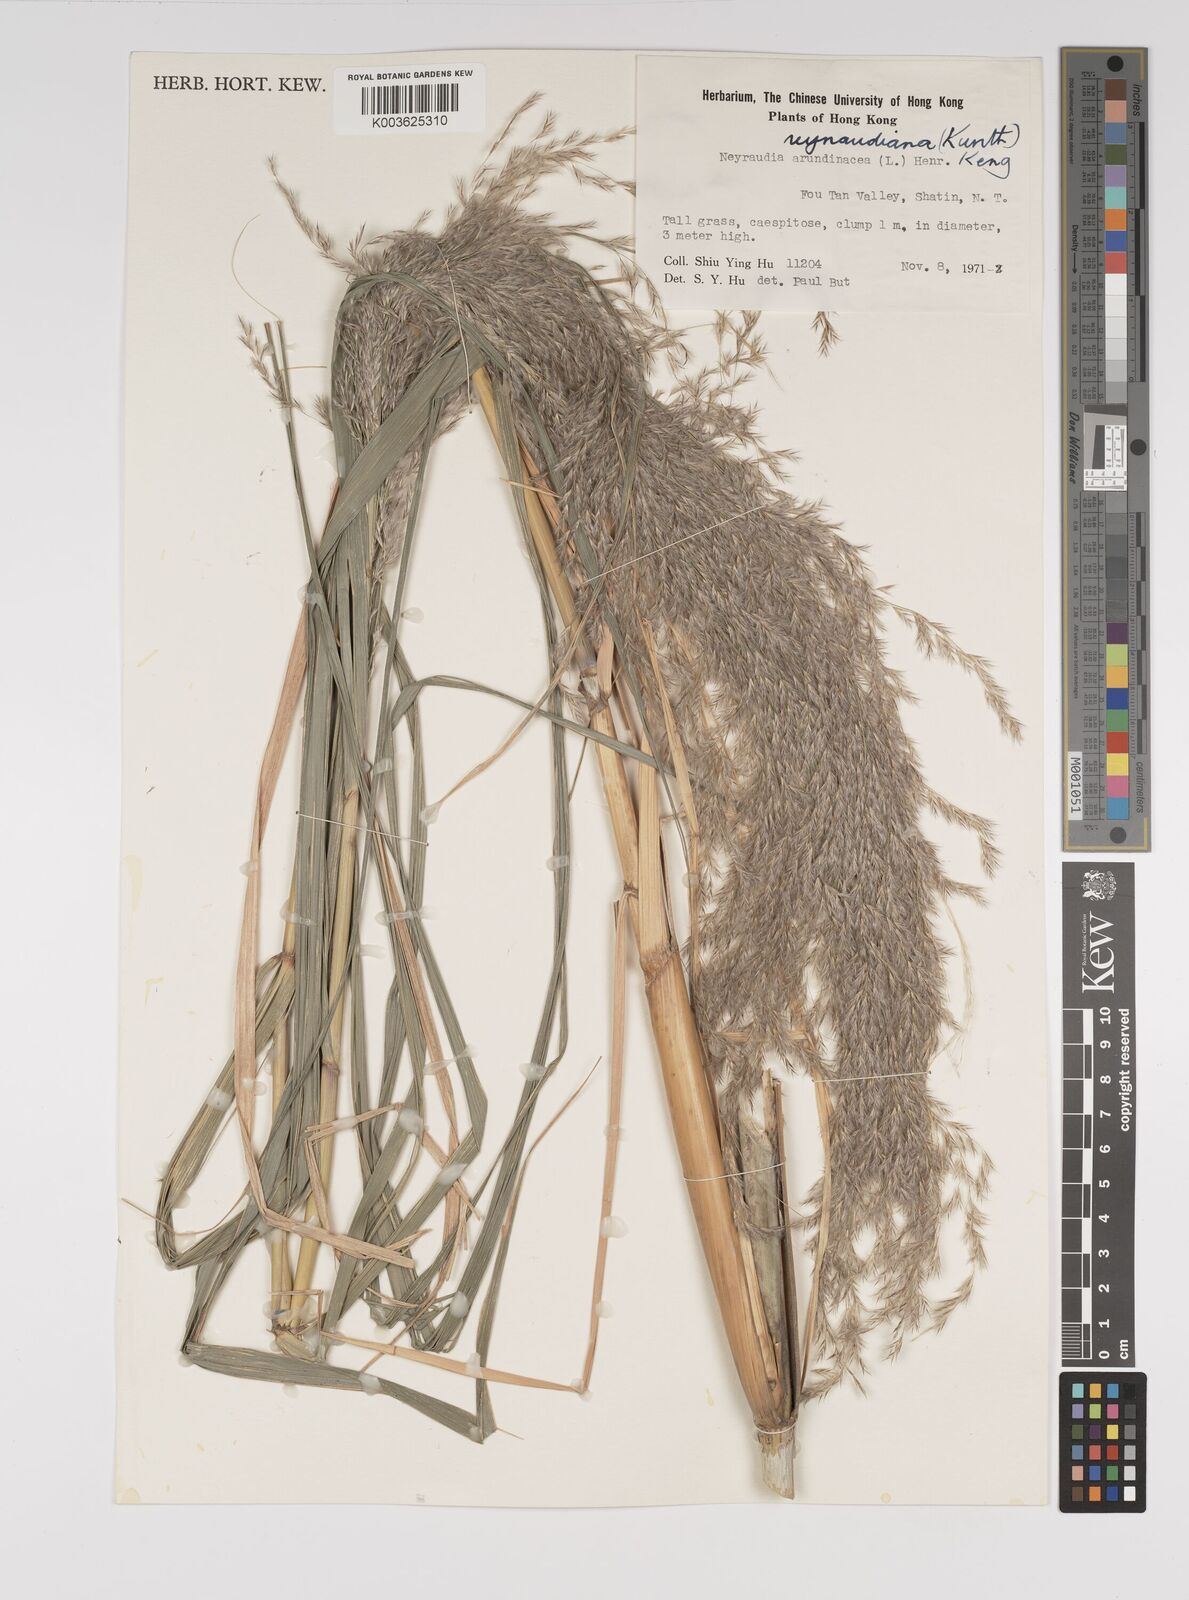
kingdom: Plantae
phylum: Tracheophyta
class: Liliopsida
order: Poales
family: Poaceae
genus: Neyraudia
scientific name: Neyraudia reynaudiana
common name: Silkreed
